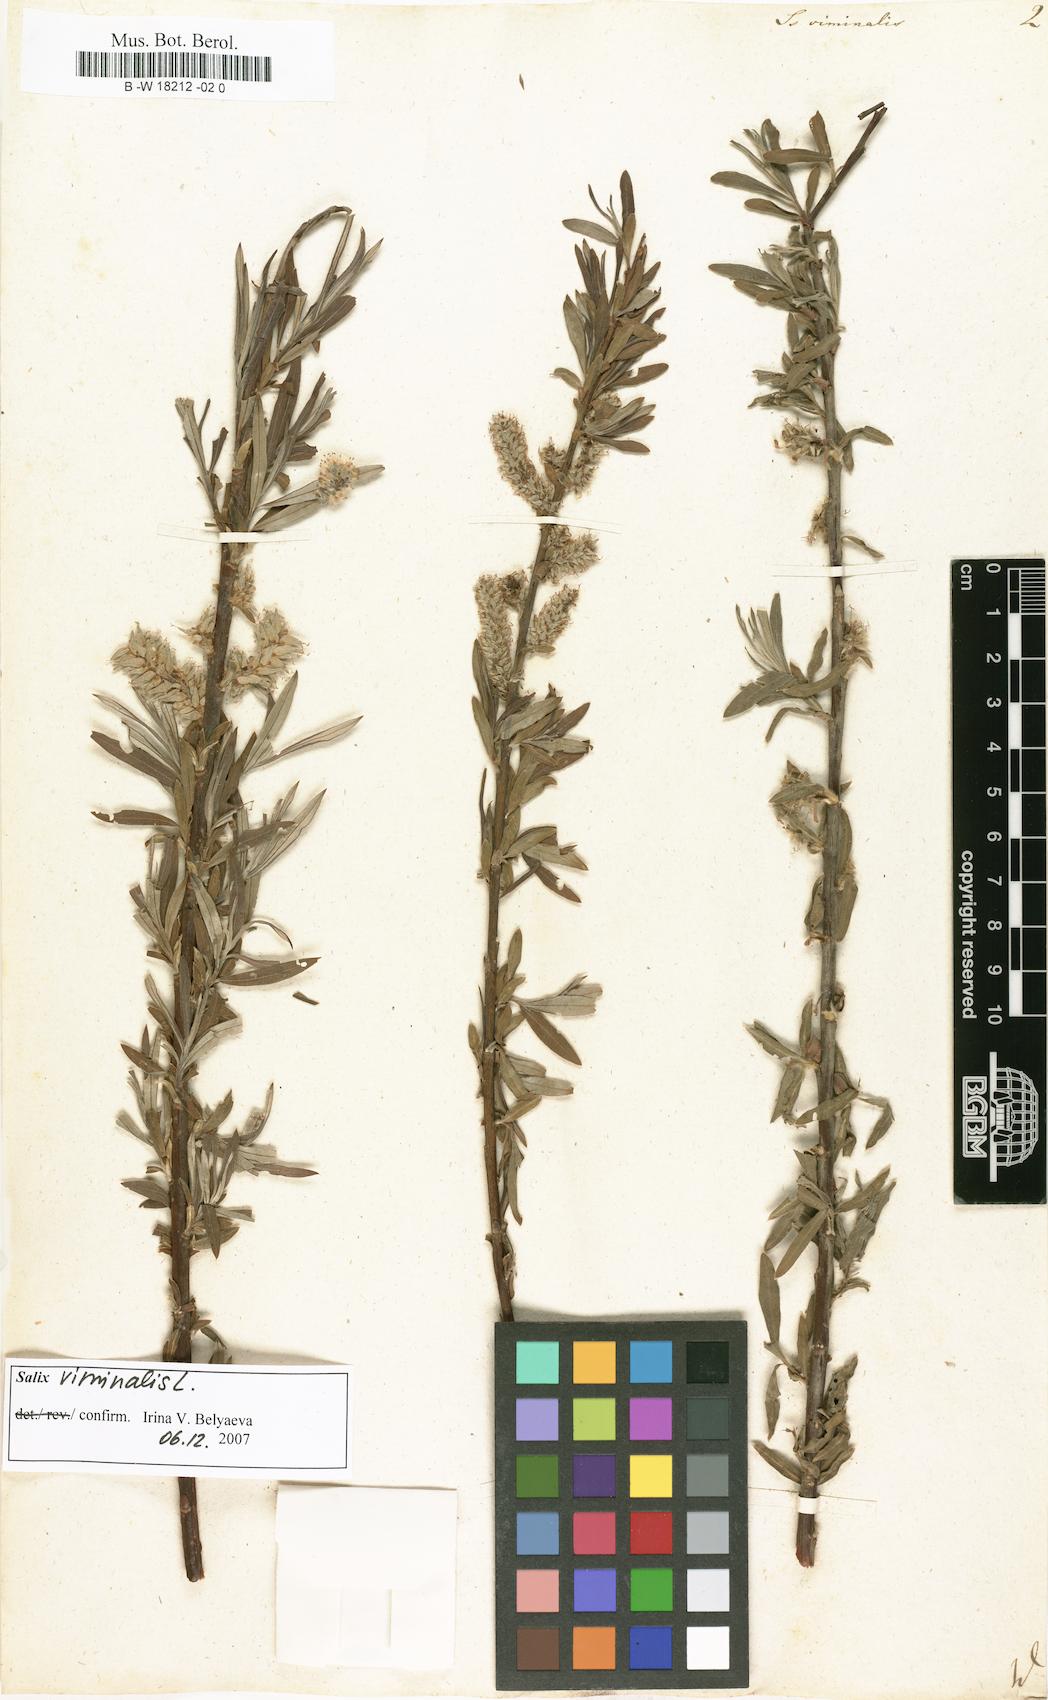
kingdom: Plantae
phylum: Tracheophyta
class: Magnoliopsida
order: Malpighiales
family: Salicaceae
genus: Salix
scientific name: Salix viminalis
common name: Osier
